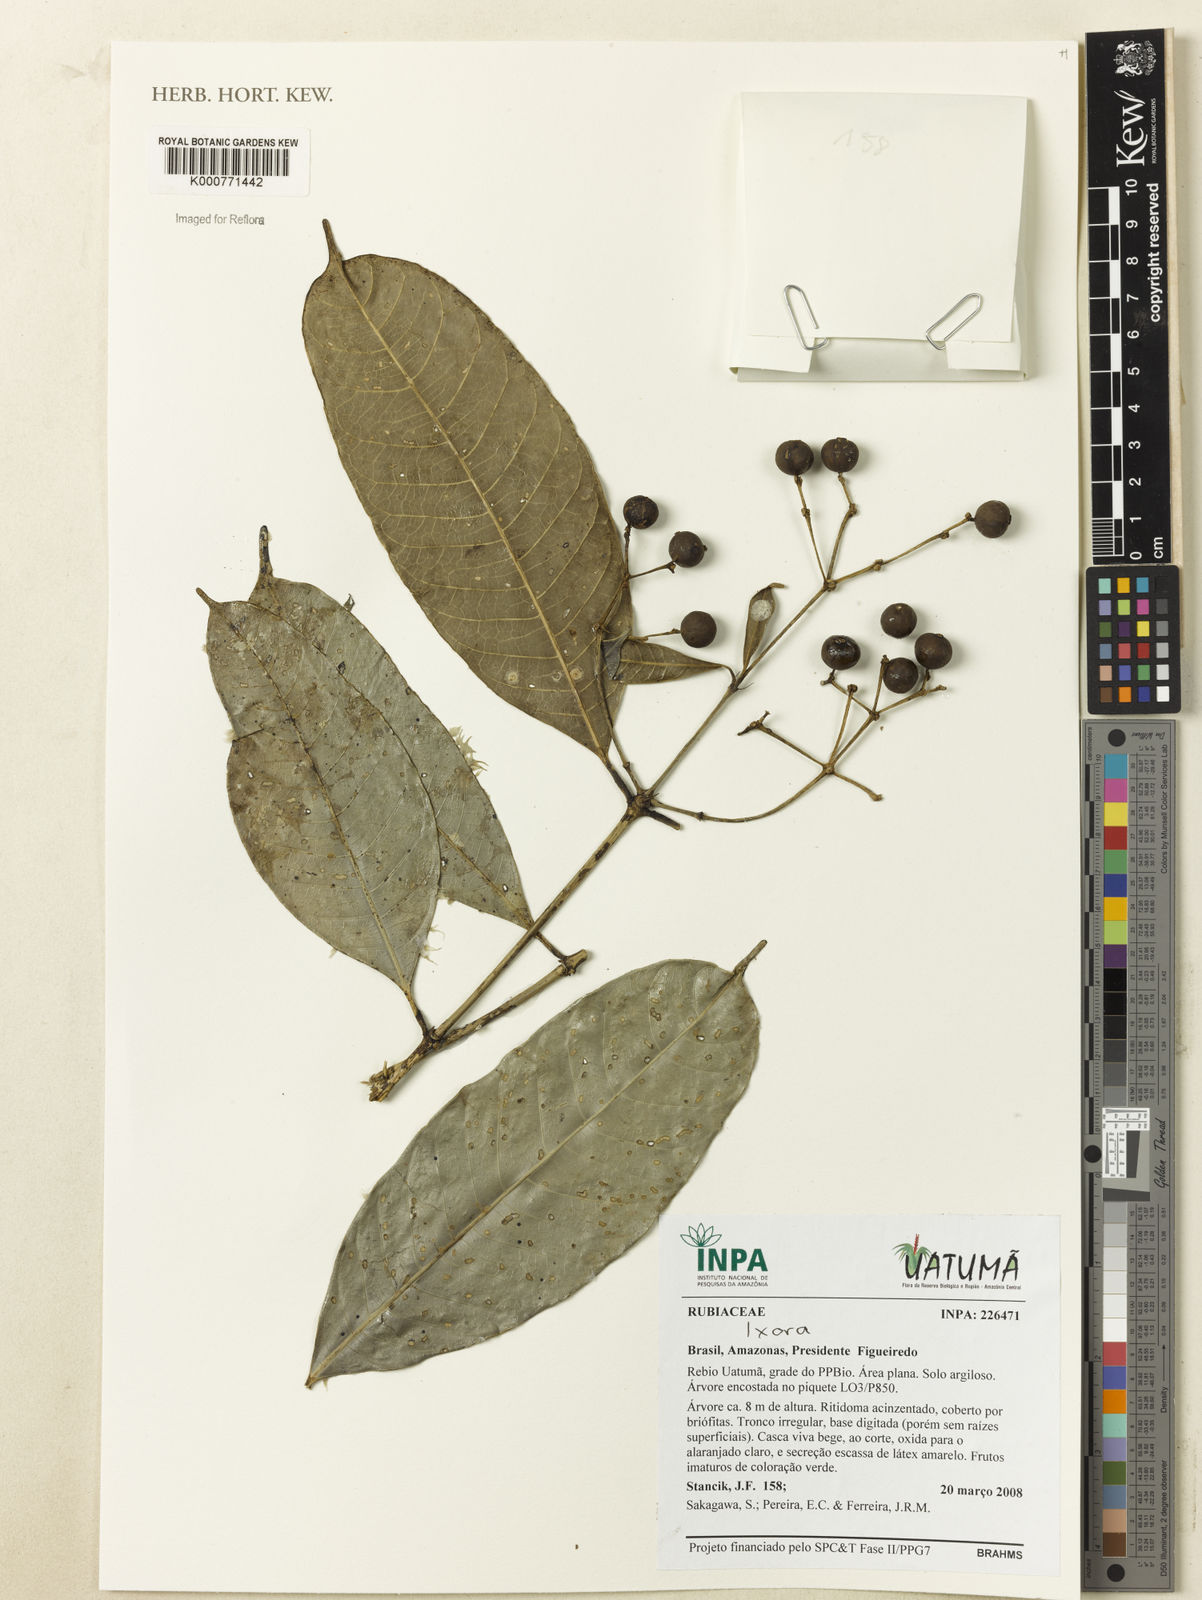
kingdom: Plantae
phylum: Tracheophyta
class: Magnoliopsida
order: Gentianales
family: Rubiaceae
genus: Ixora
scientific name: Ixora
